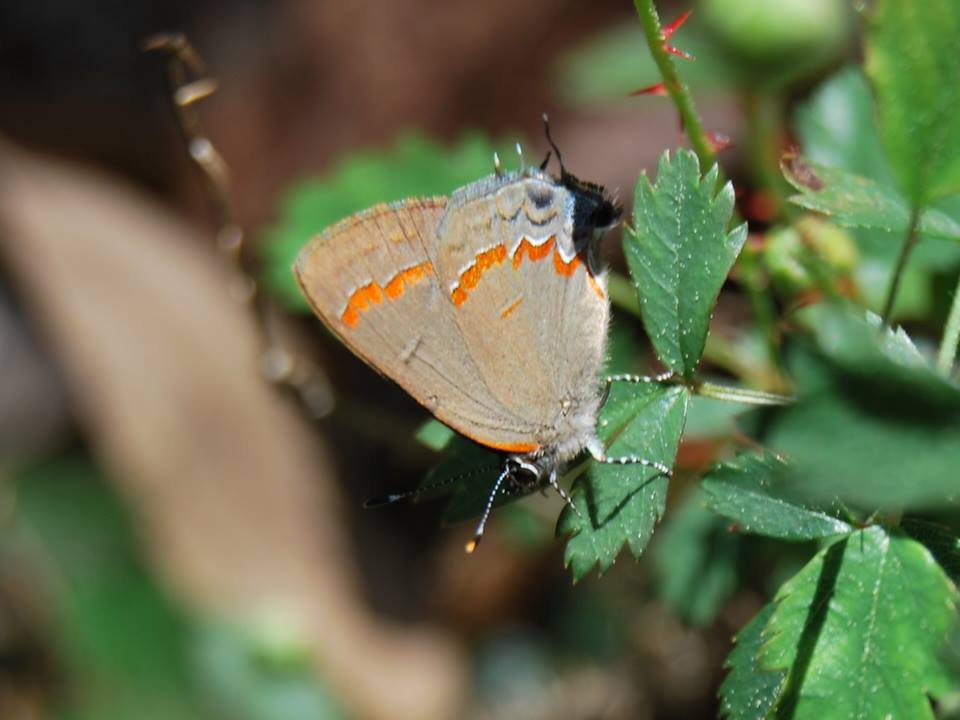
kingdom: Animalia
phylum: Arthropoda
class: Insecta
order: Lepidoptera
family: Lycaenidae
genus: Calycopis
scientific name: Calycopis cecrops
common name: Red-banded Hairstreak
